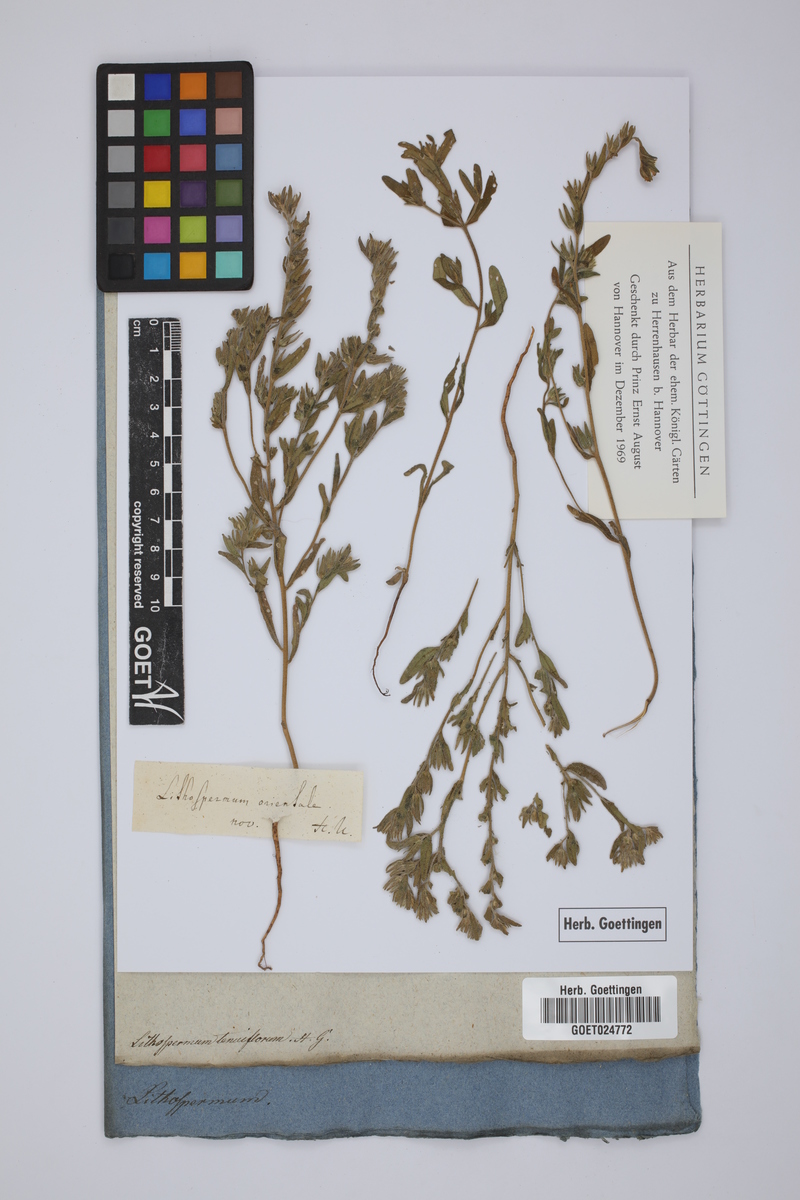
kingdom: Plantae
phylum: Tracheophyta
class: Magnoliopsida
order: Boraginales
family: Boraginaceae
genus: Buglossoides
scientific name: Buglossoides tenuiflora
